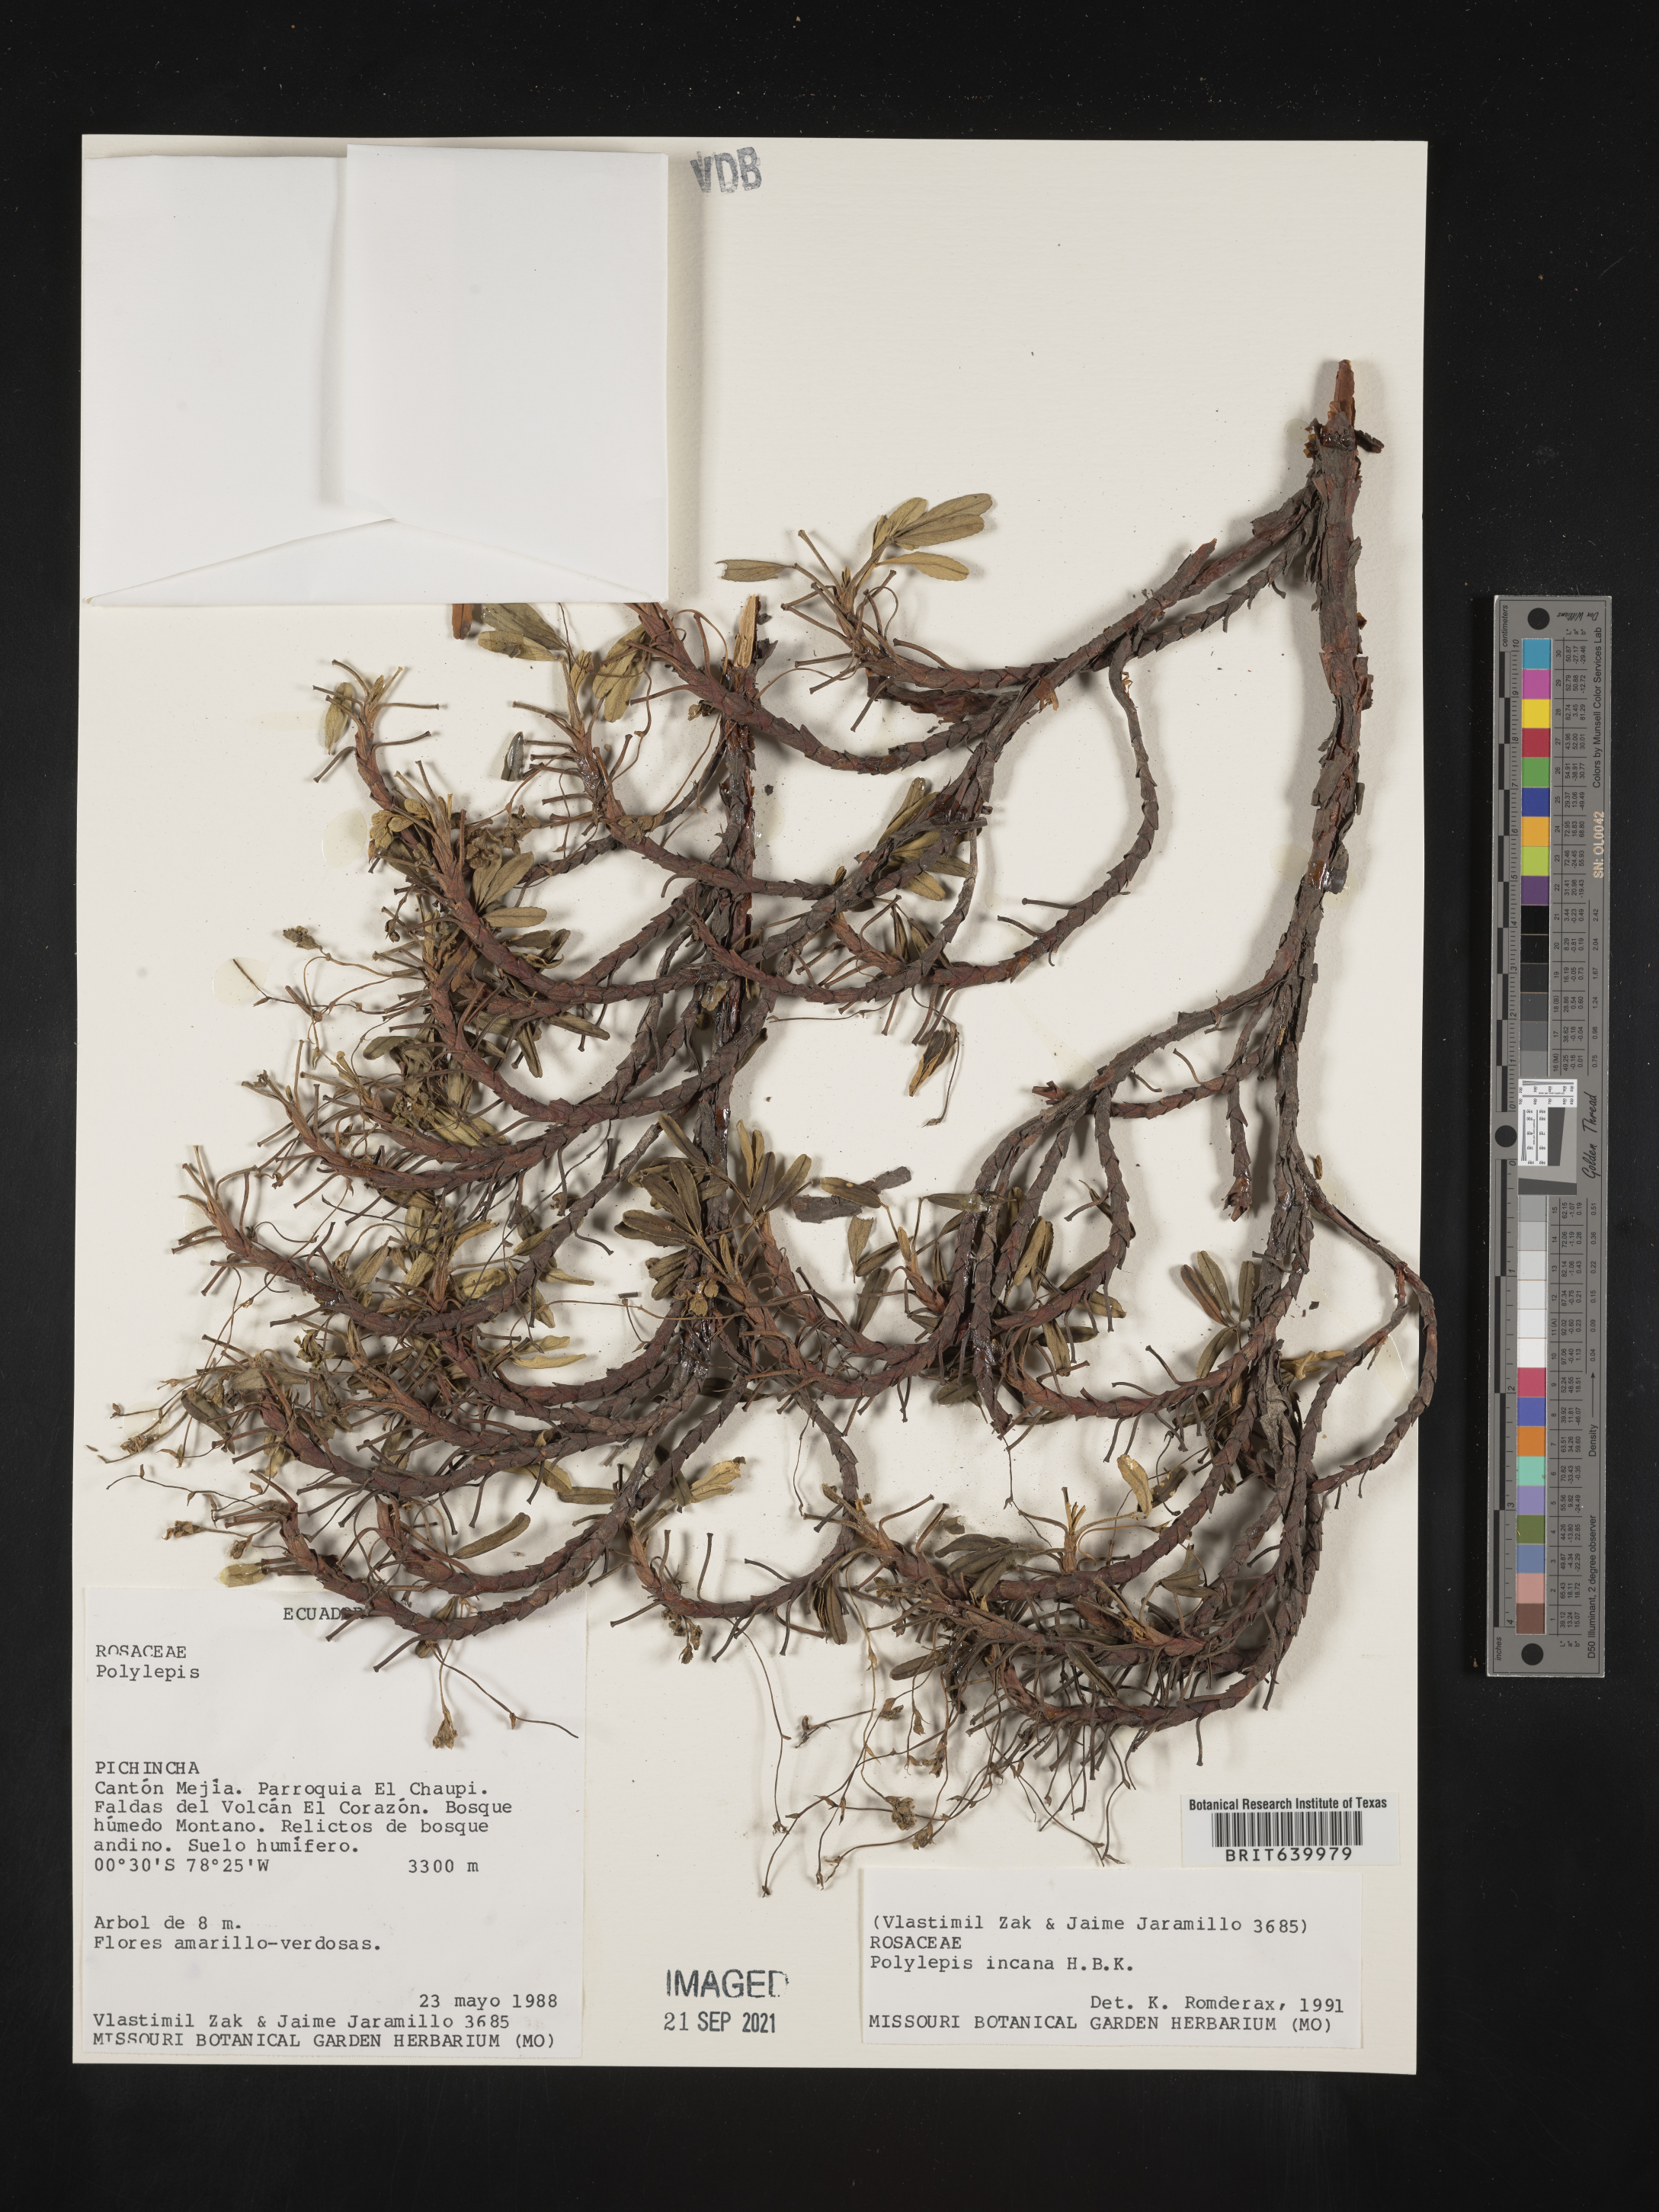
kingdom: Plantae
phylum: Tracheophyta
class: Magnoliopsida
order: Rosales
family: Rosaceae
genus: Polylepis
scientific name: Polylepis
